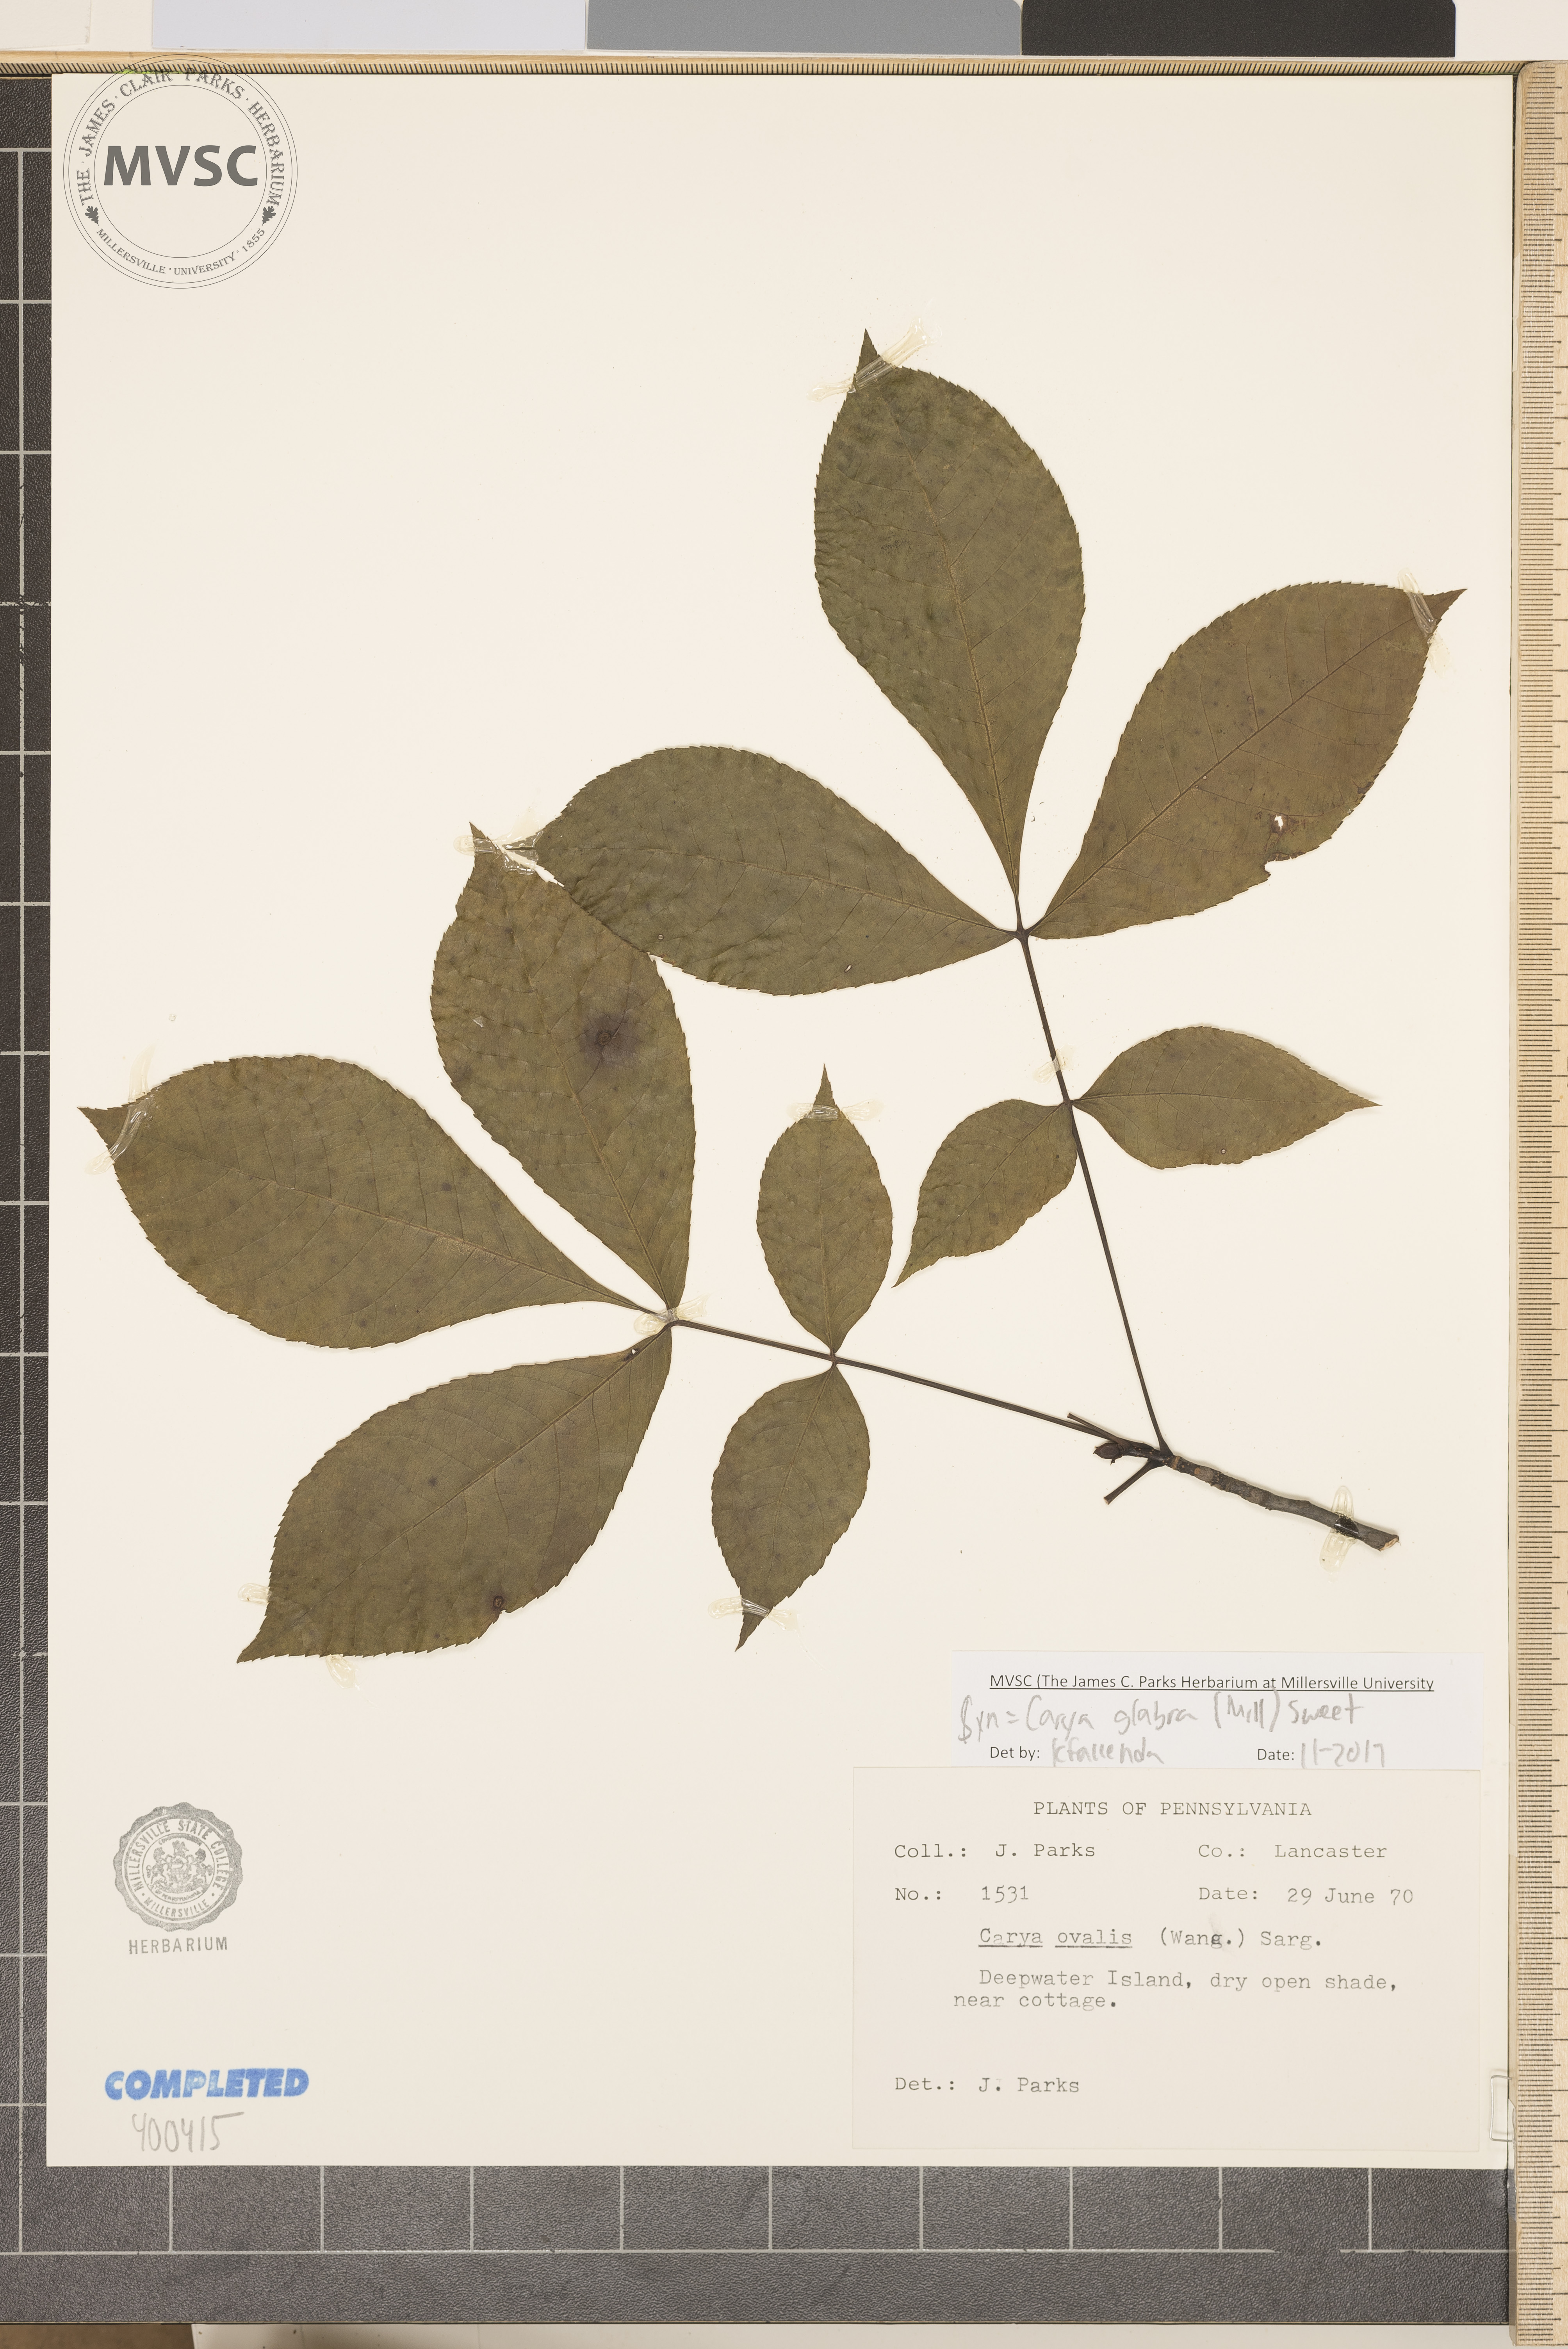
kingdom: Plantae
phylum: Tracheophyta
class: Magnoliopsida
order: Fagales
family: Juglandaceae
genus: Carya
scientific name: Carya glabra
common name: red hickory
